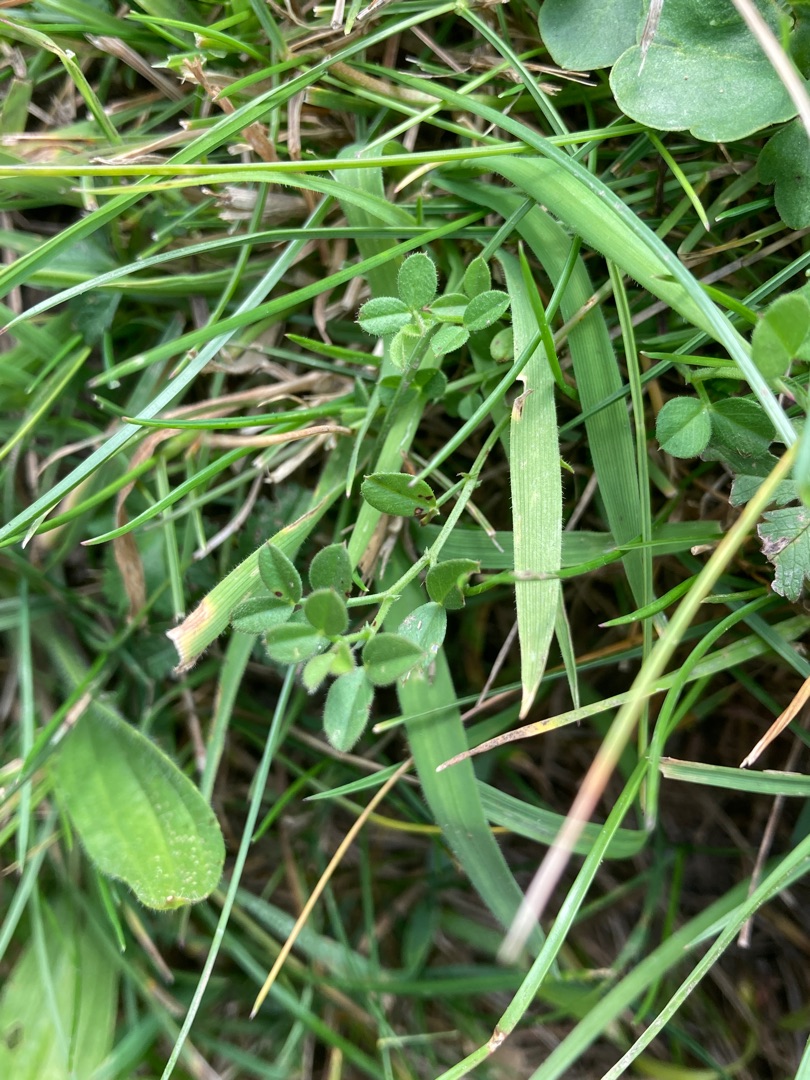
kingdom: Plantae
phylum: Tracheophyta
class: Magnoliopsida
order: Fabales
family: Fabaceae
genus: Vicia
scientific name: Vicia lathyroides
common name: Vår-vikke
